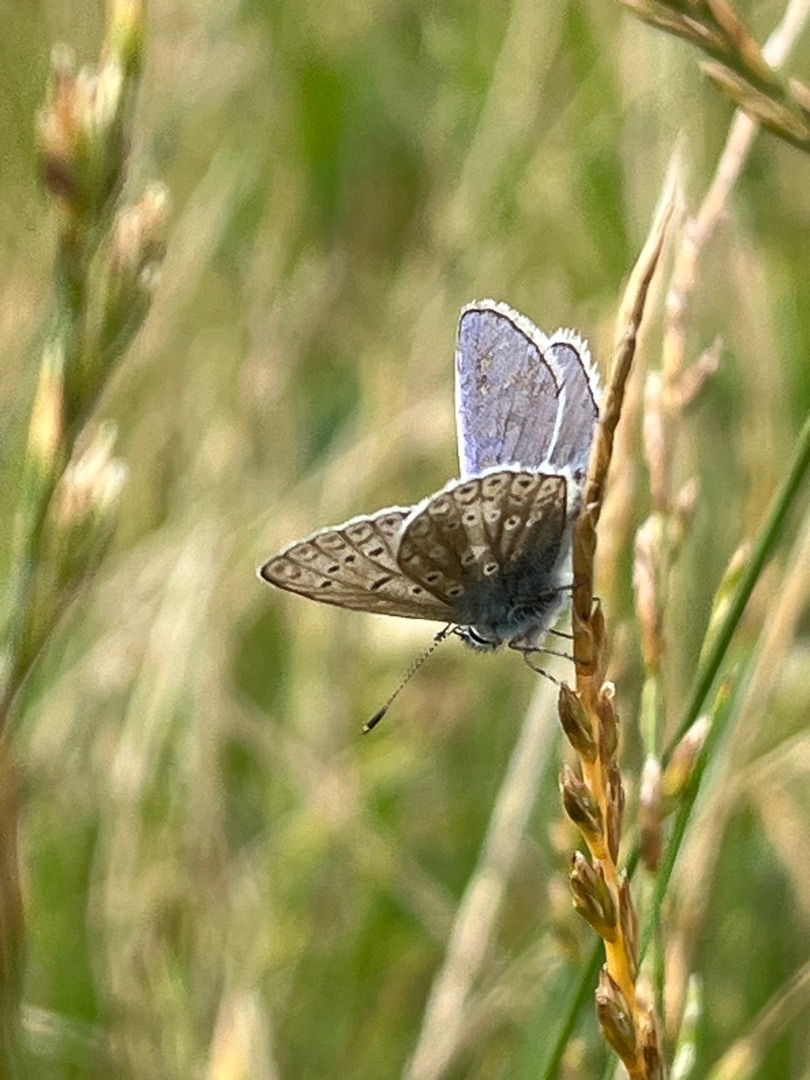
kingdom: Animalia
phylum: Arthropoda
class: Insecta
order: Lepidoptera
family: Lycaenidae
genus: Polyommatus
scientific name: Polyommatus icarus
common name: Almindelig blåfugl
